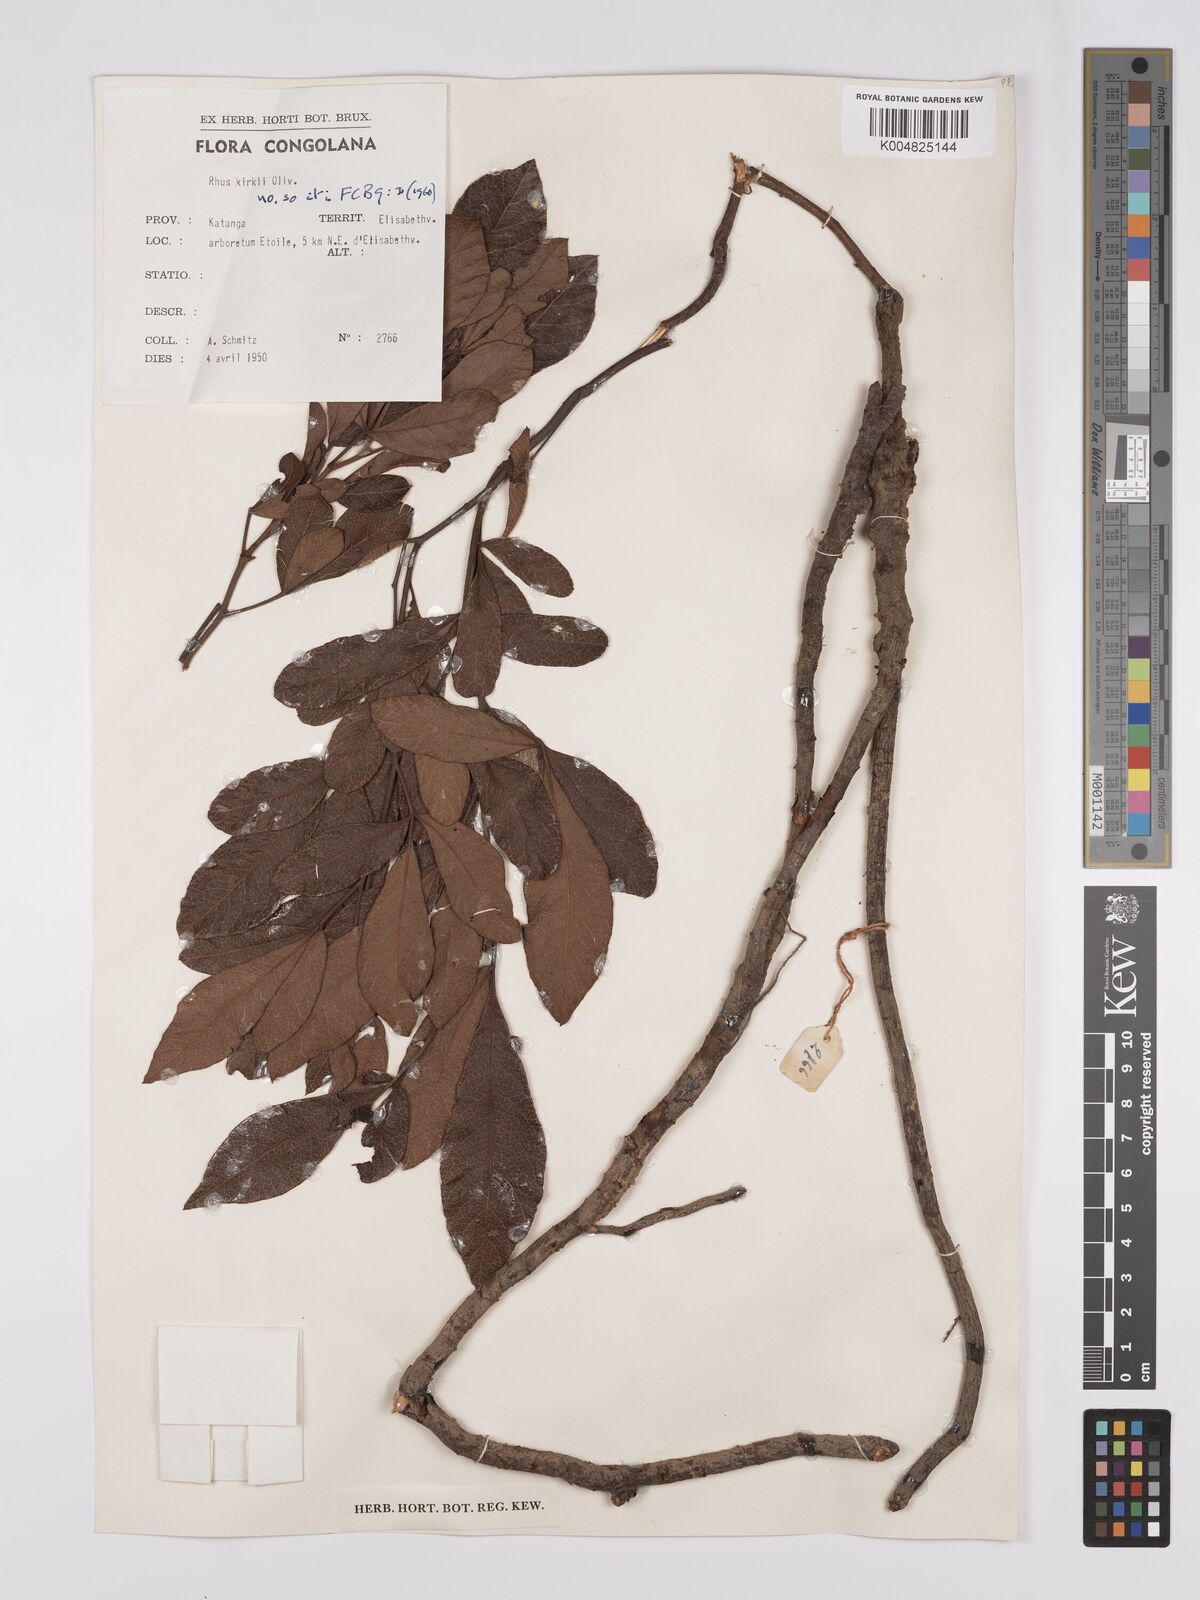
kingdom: Plantae
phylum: Tracheophyta
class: Magnoliopsida
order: Sapindales
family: Anacardiaceae
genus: Searsia
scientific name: Searsia kirkii
